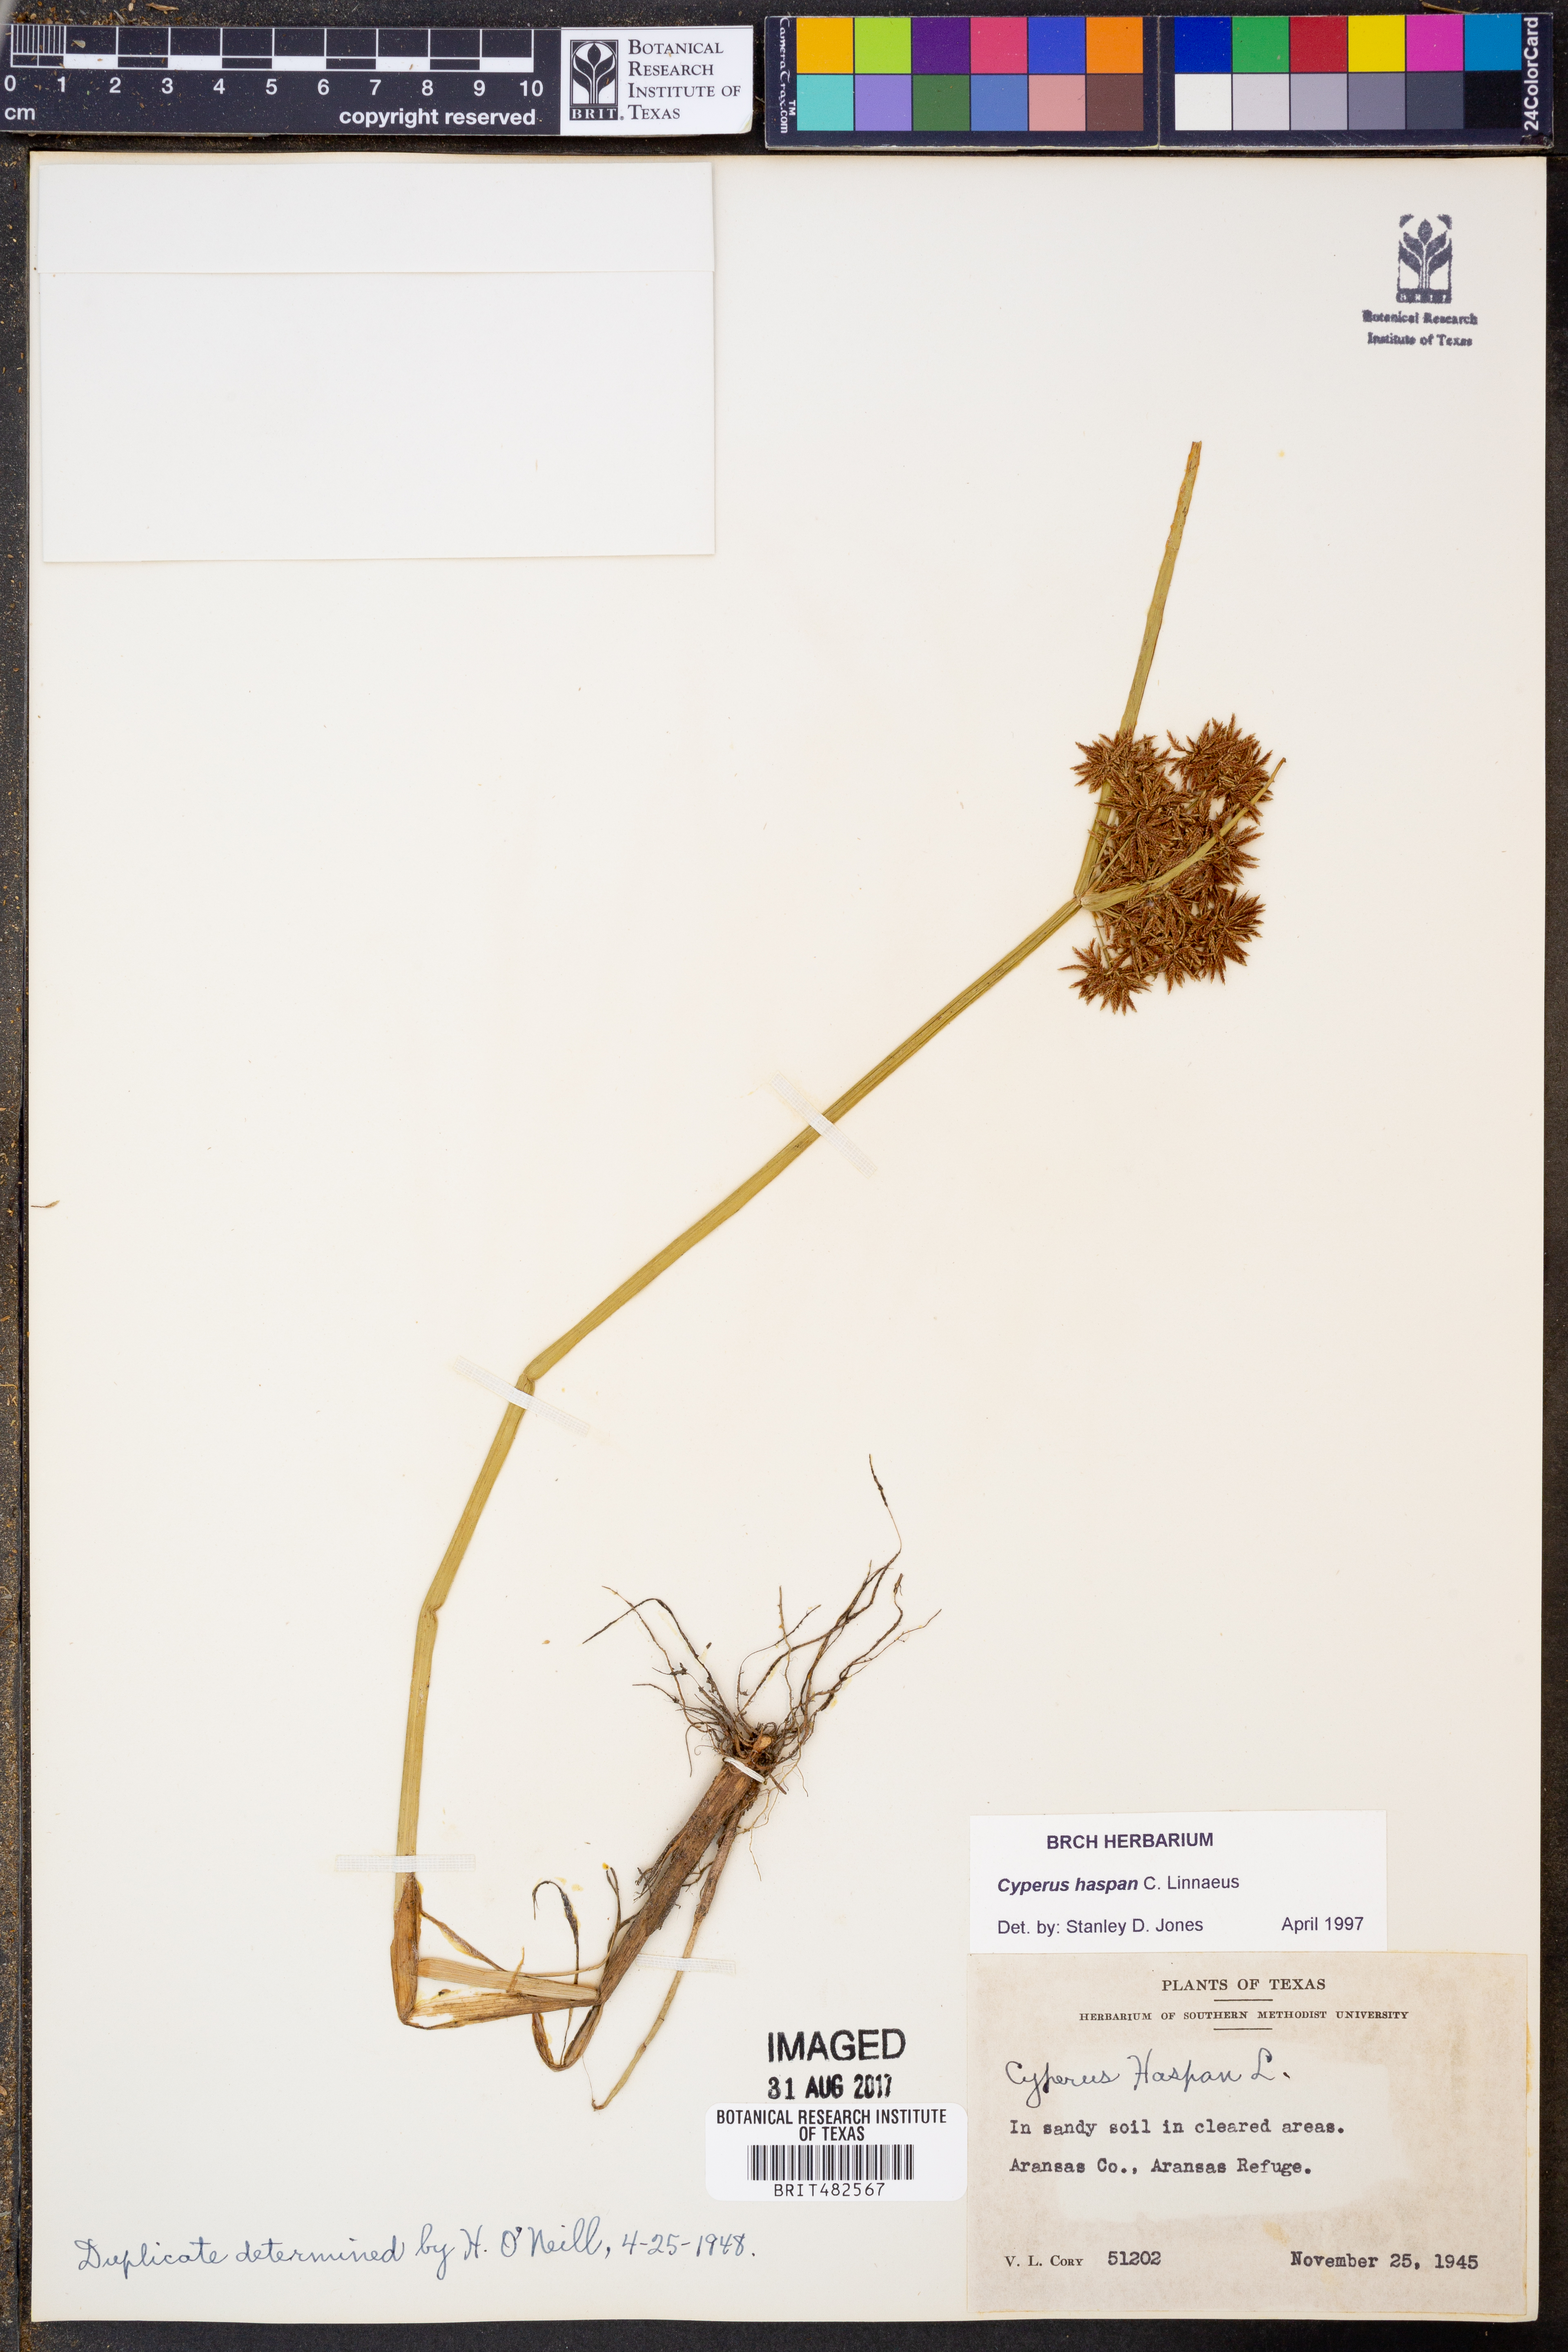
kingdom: Plantae
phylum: Tracheophyta
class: Liliopsida
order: Poales
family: Cyperaceae
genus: Cyperus
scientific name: Cyperus haspan
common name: Haspan flatsedge
